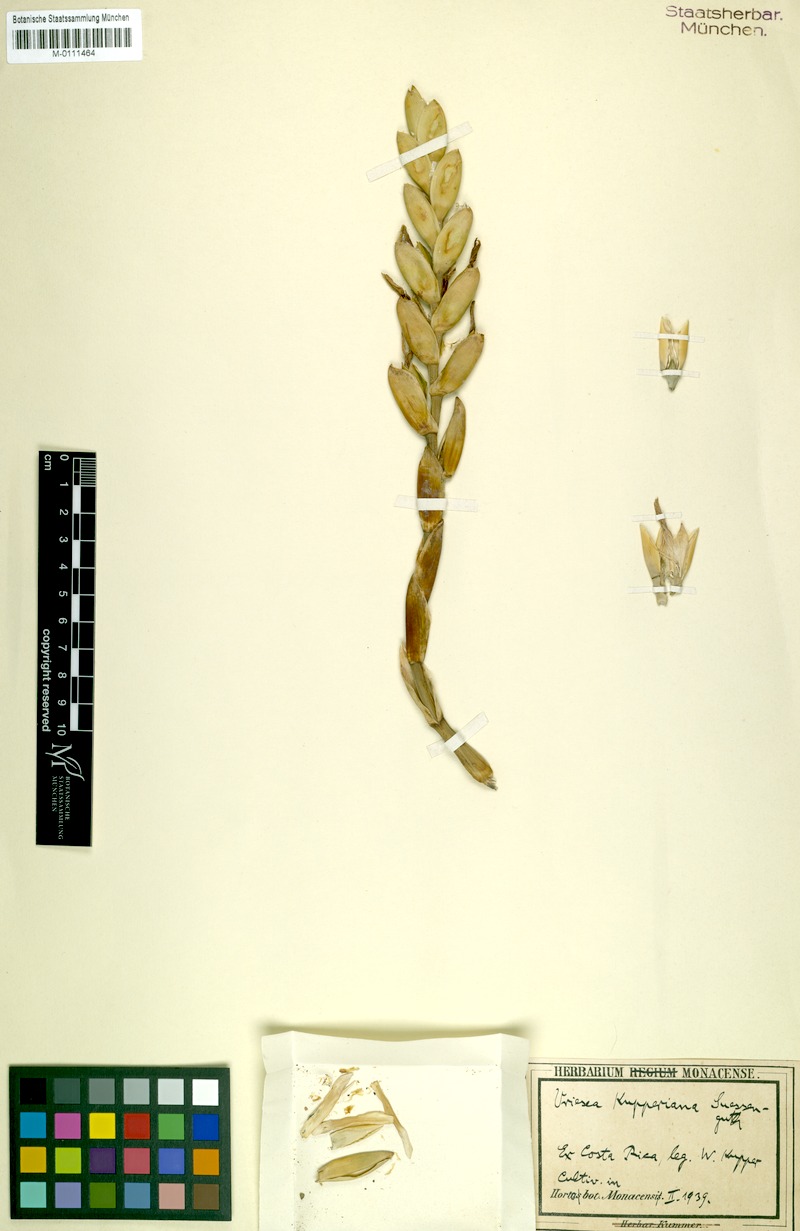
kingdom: Plantae
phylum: Tracheophyta
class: Liliopsida
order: Poales
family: Bromeliaceae
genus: Werauhia
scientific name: Werauhia kupperiana
